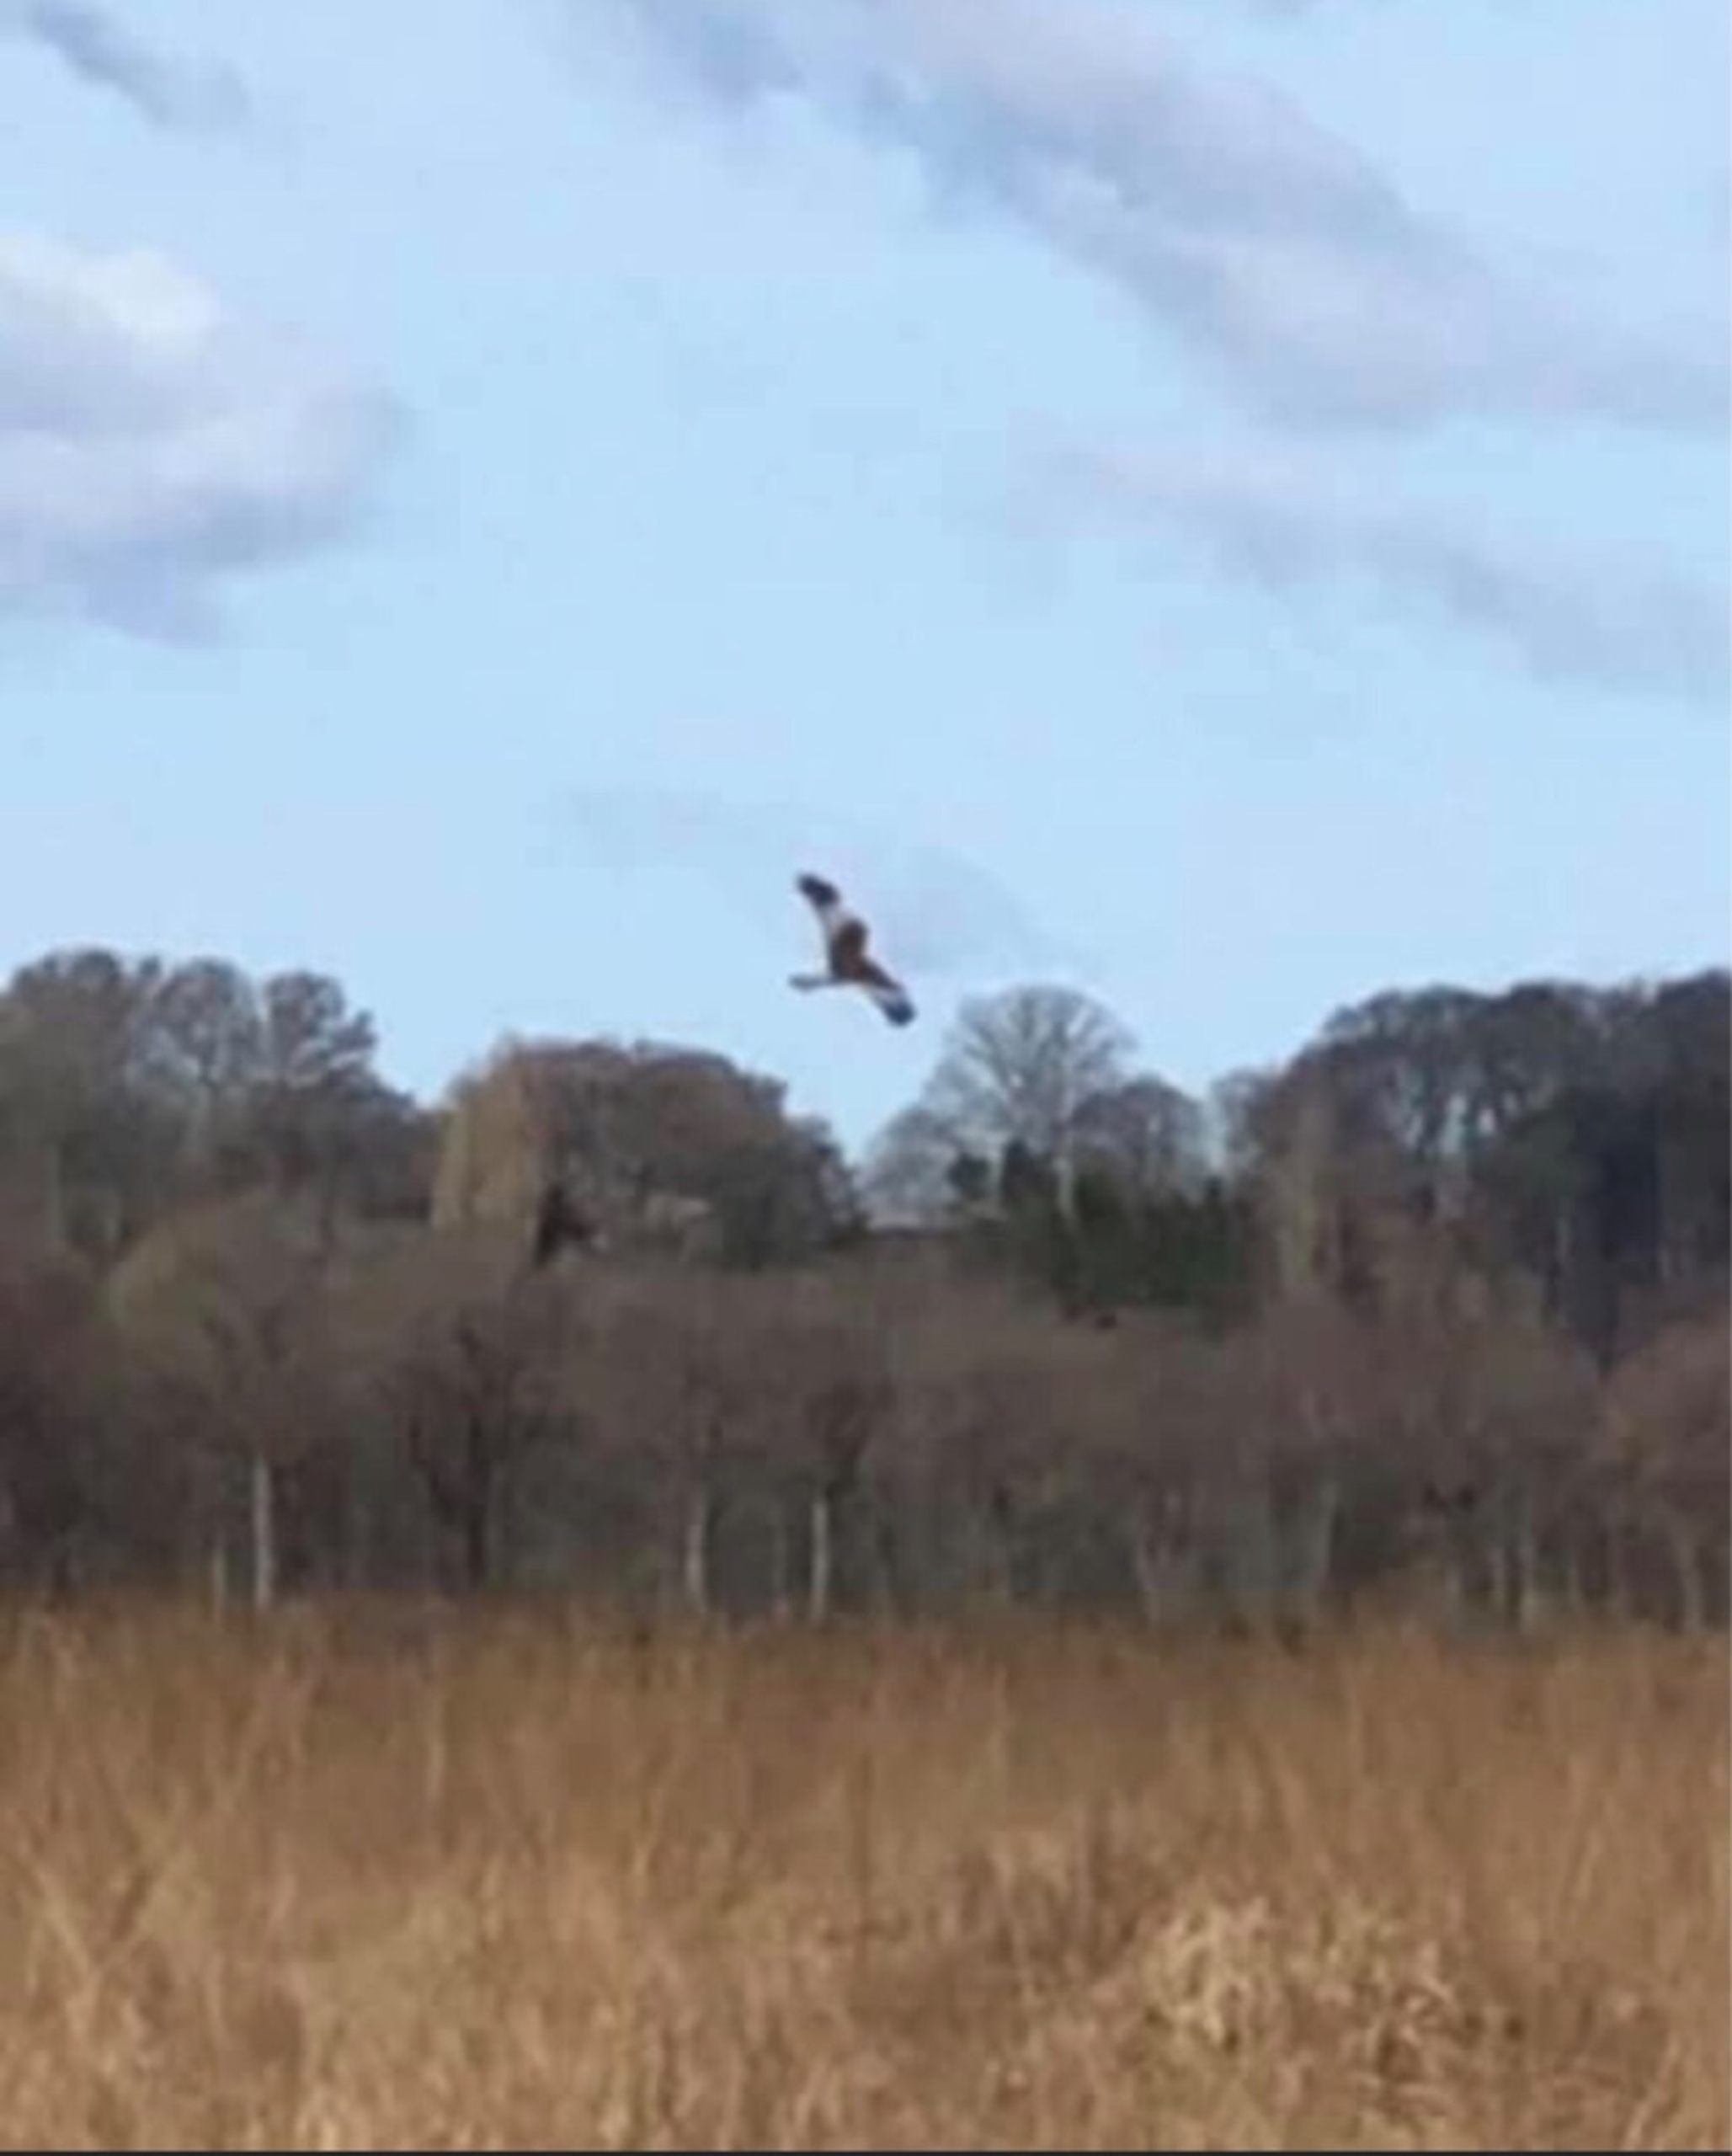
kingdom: Animalia
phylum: Chordata
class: Aves
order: Accipitriformes
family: Accipitridae
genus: Circus
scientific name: Circus aeruginosus
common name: Rørhøg
